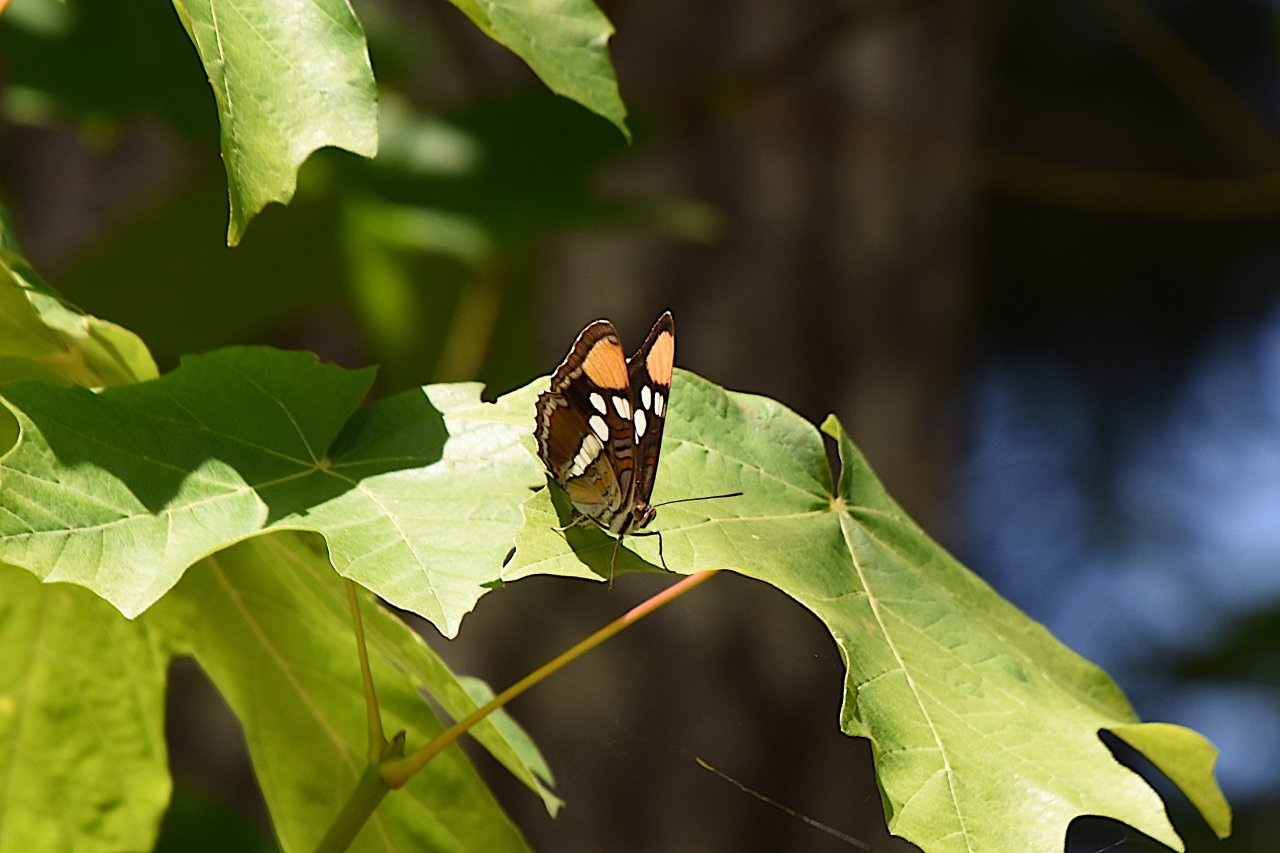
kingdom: Animalia
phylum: Arthropoda
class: Insecta
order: Lepidoptera
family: Nymphalidae
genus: Limenitis
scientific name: Limenitis bredowii
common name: California Sister
